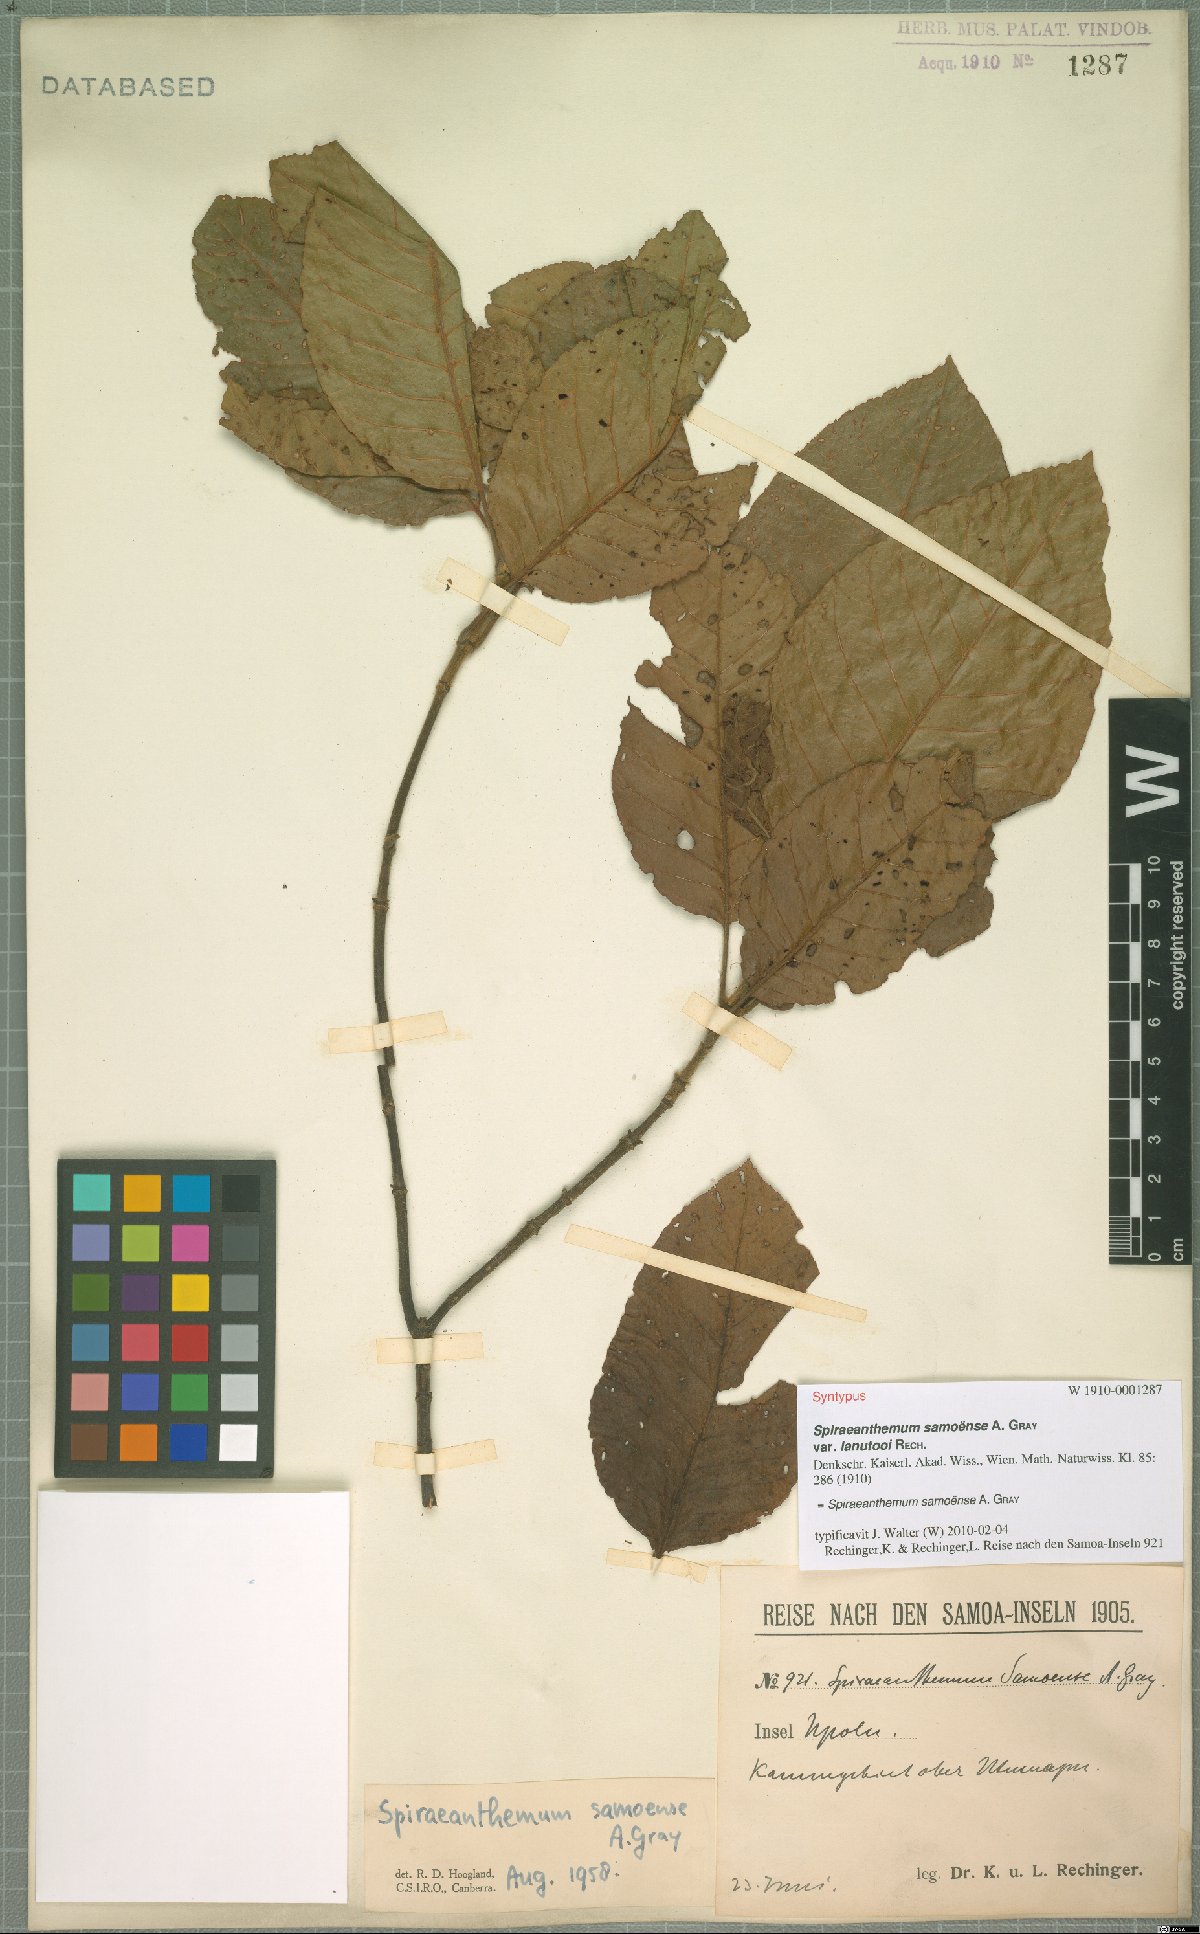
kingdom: Plantae
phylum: Tracheophyta
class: Magnoliopsida
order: Oxalidales
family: Cunoniaceae
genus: Spiraeanthemum
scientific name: Spiraeanthemum samoense
